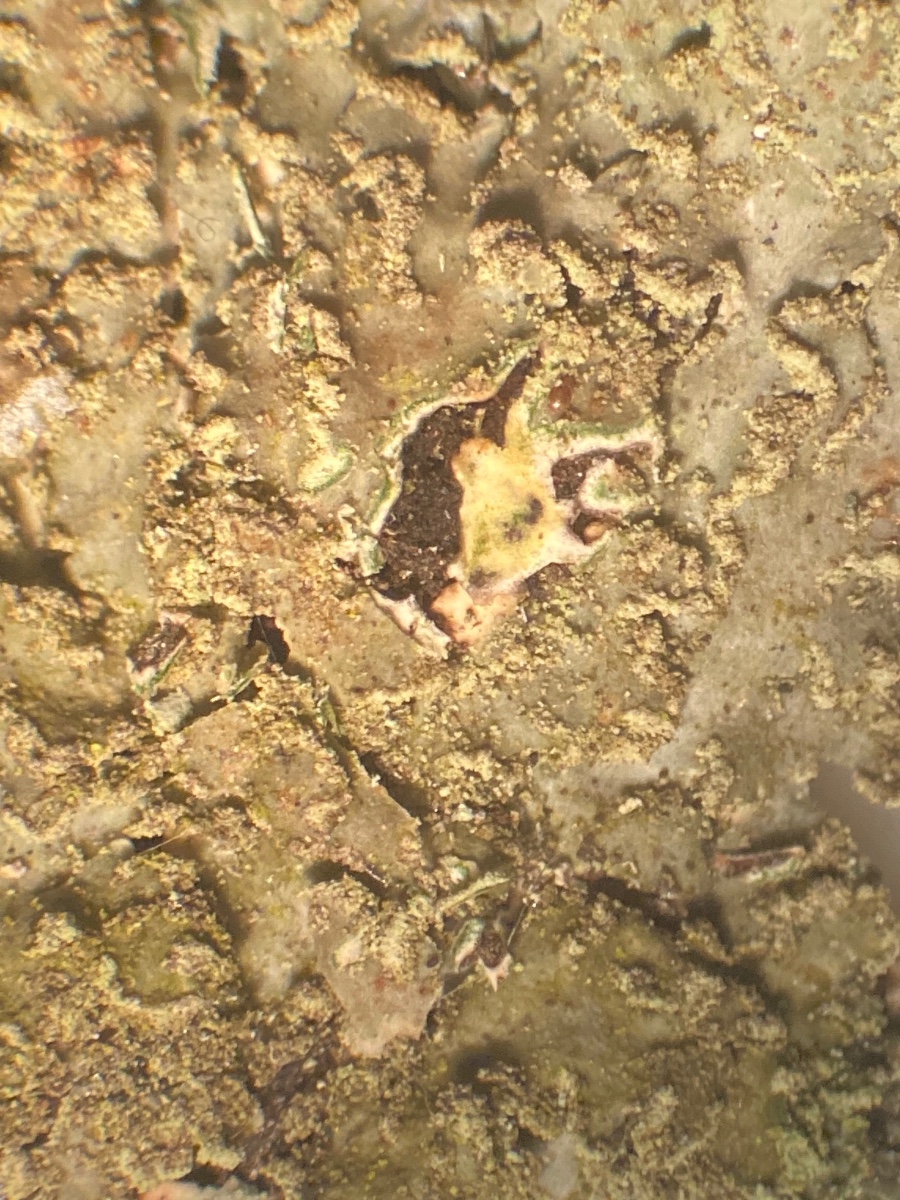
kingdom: Fungi
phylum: Ascomycota
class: Lecanoromycetes
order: Caliciales
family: Physciaceae
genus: Physconia
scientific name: Physconia enteroxantha
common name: grynet dugrosetlav
